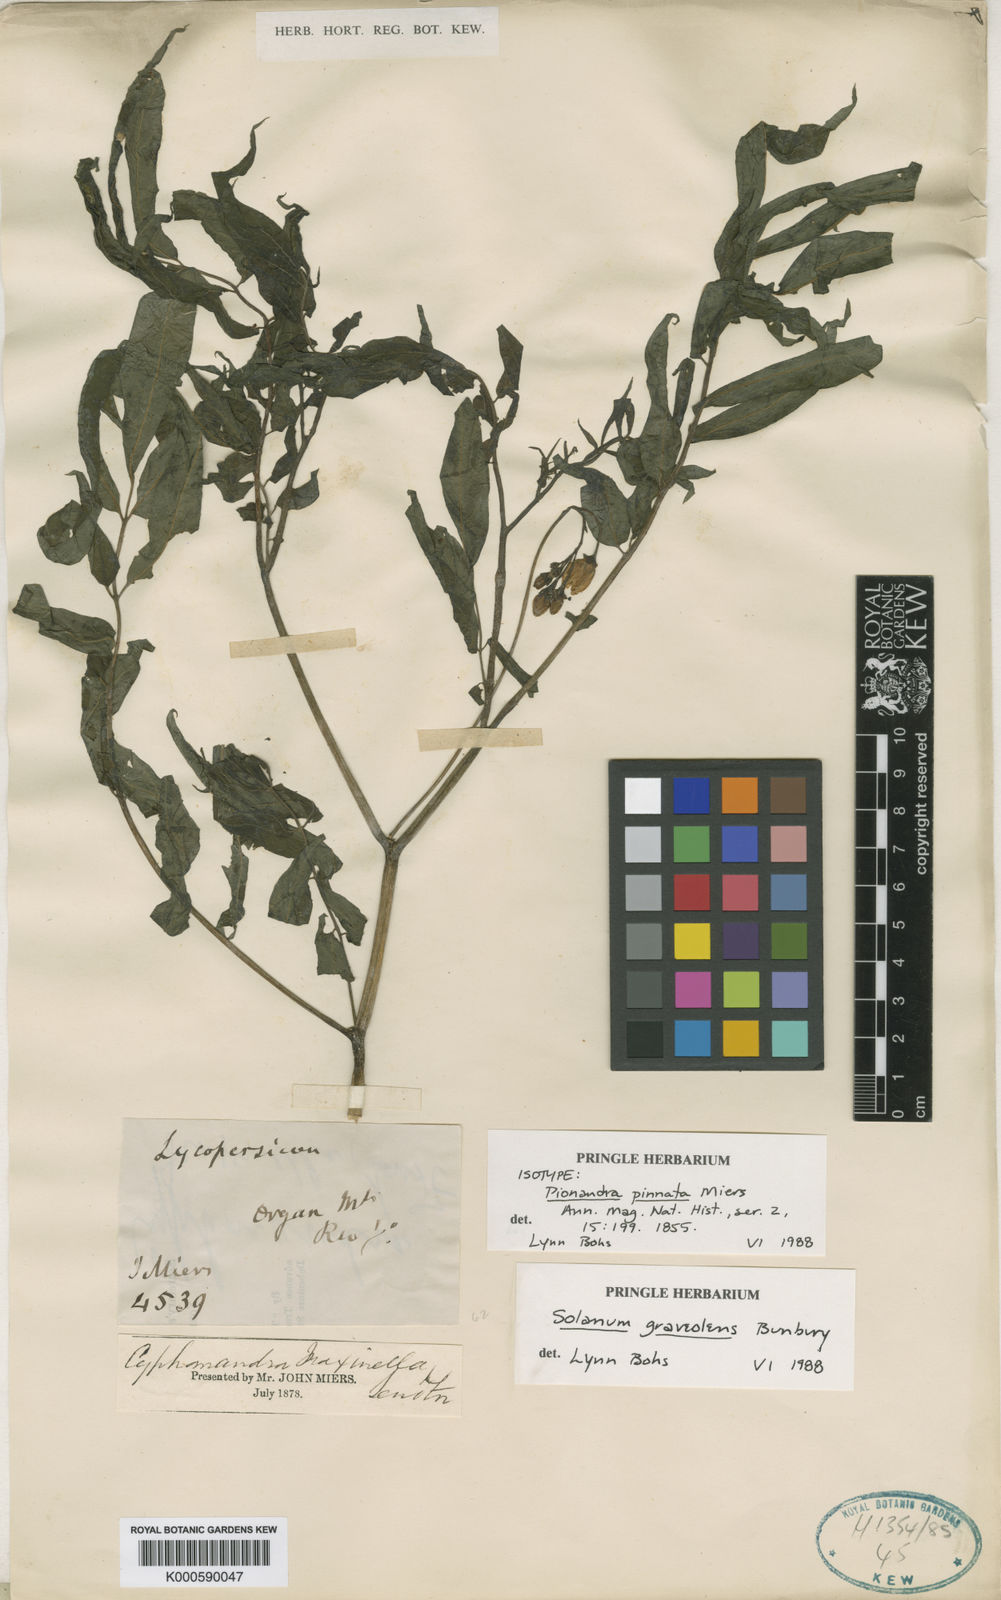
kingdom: Plantae
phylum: Tracheophyta
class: Magnoliopsida
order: Solanales
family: Solanaceae
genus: Solanum
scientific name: Solanum graveolens
